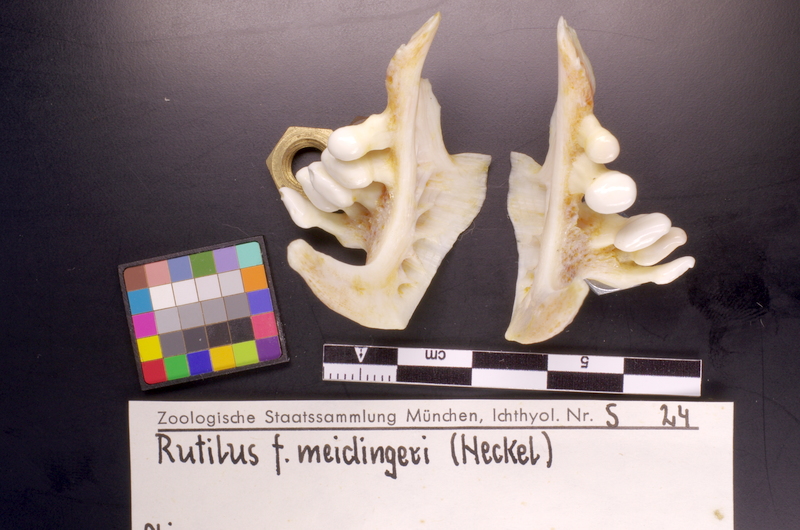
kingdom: Animalia
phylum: Chordata
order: Cypriniformes
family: Cyprinidae
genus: Rutilus
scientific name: Rutilus meidingeri
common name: Perlfisch
